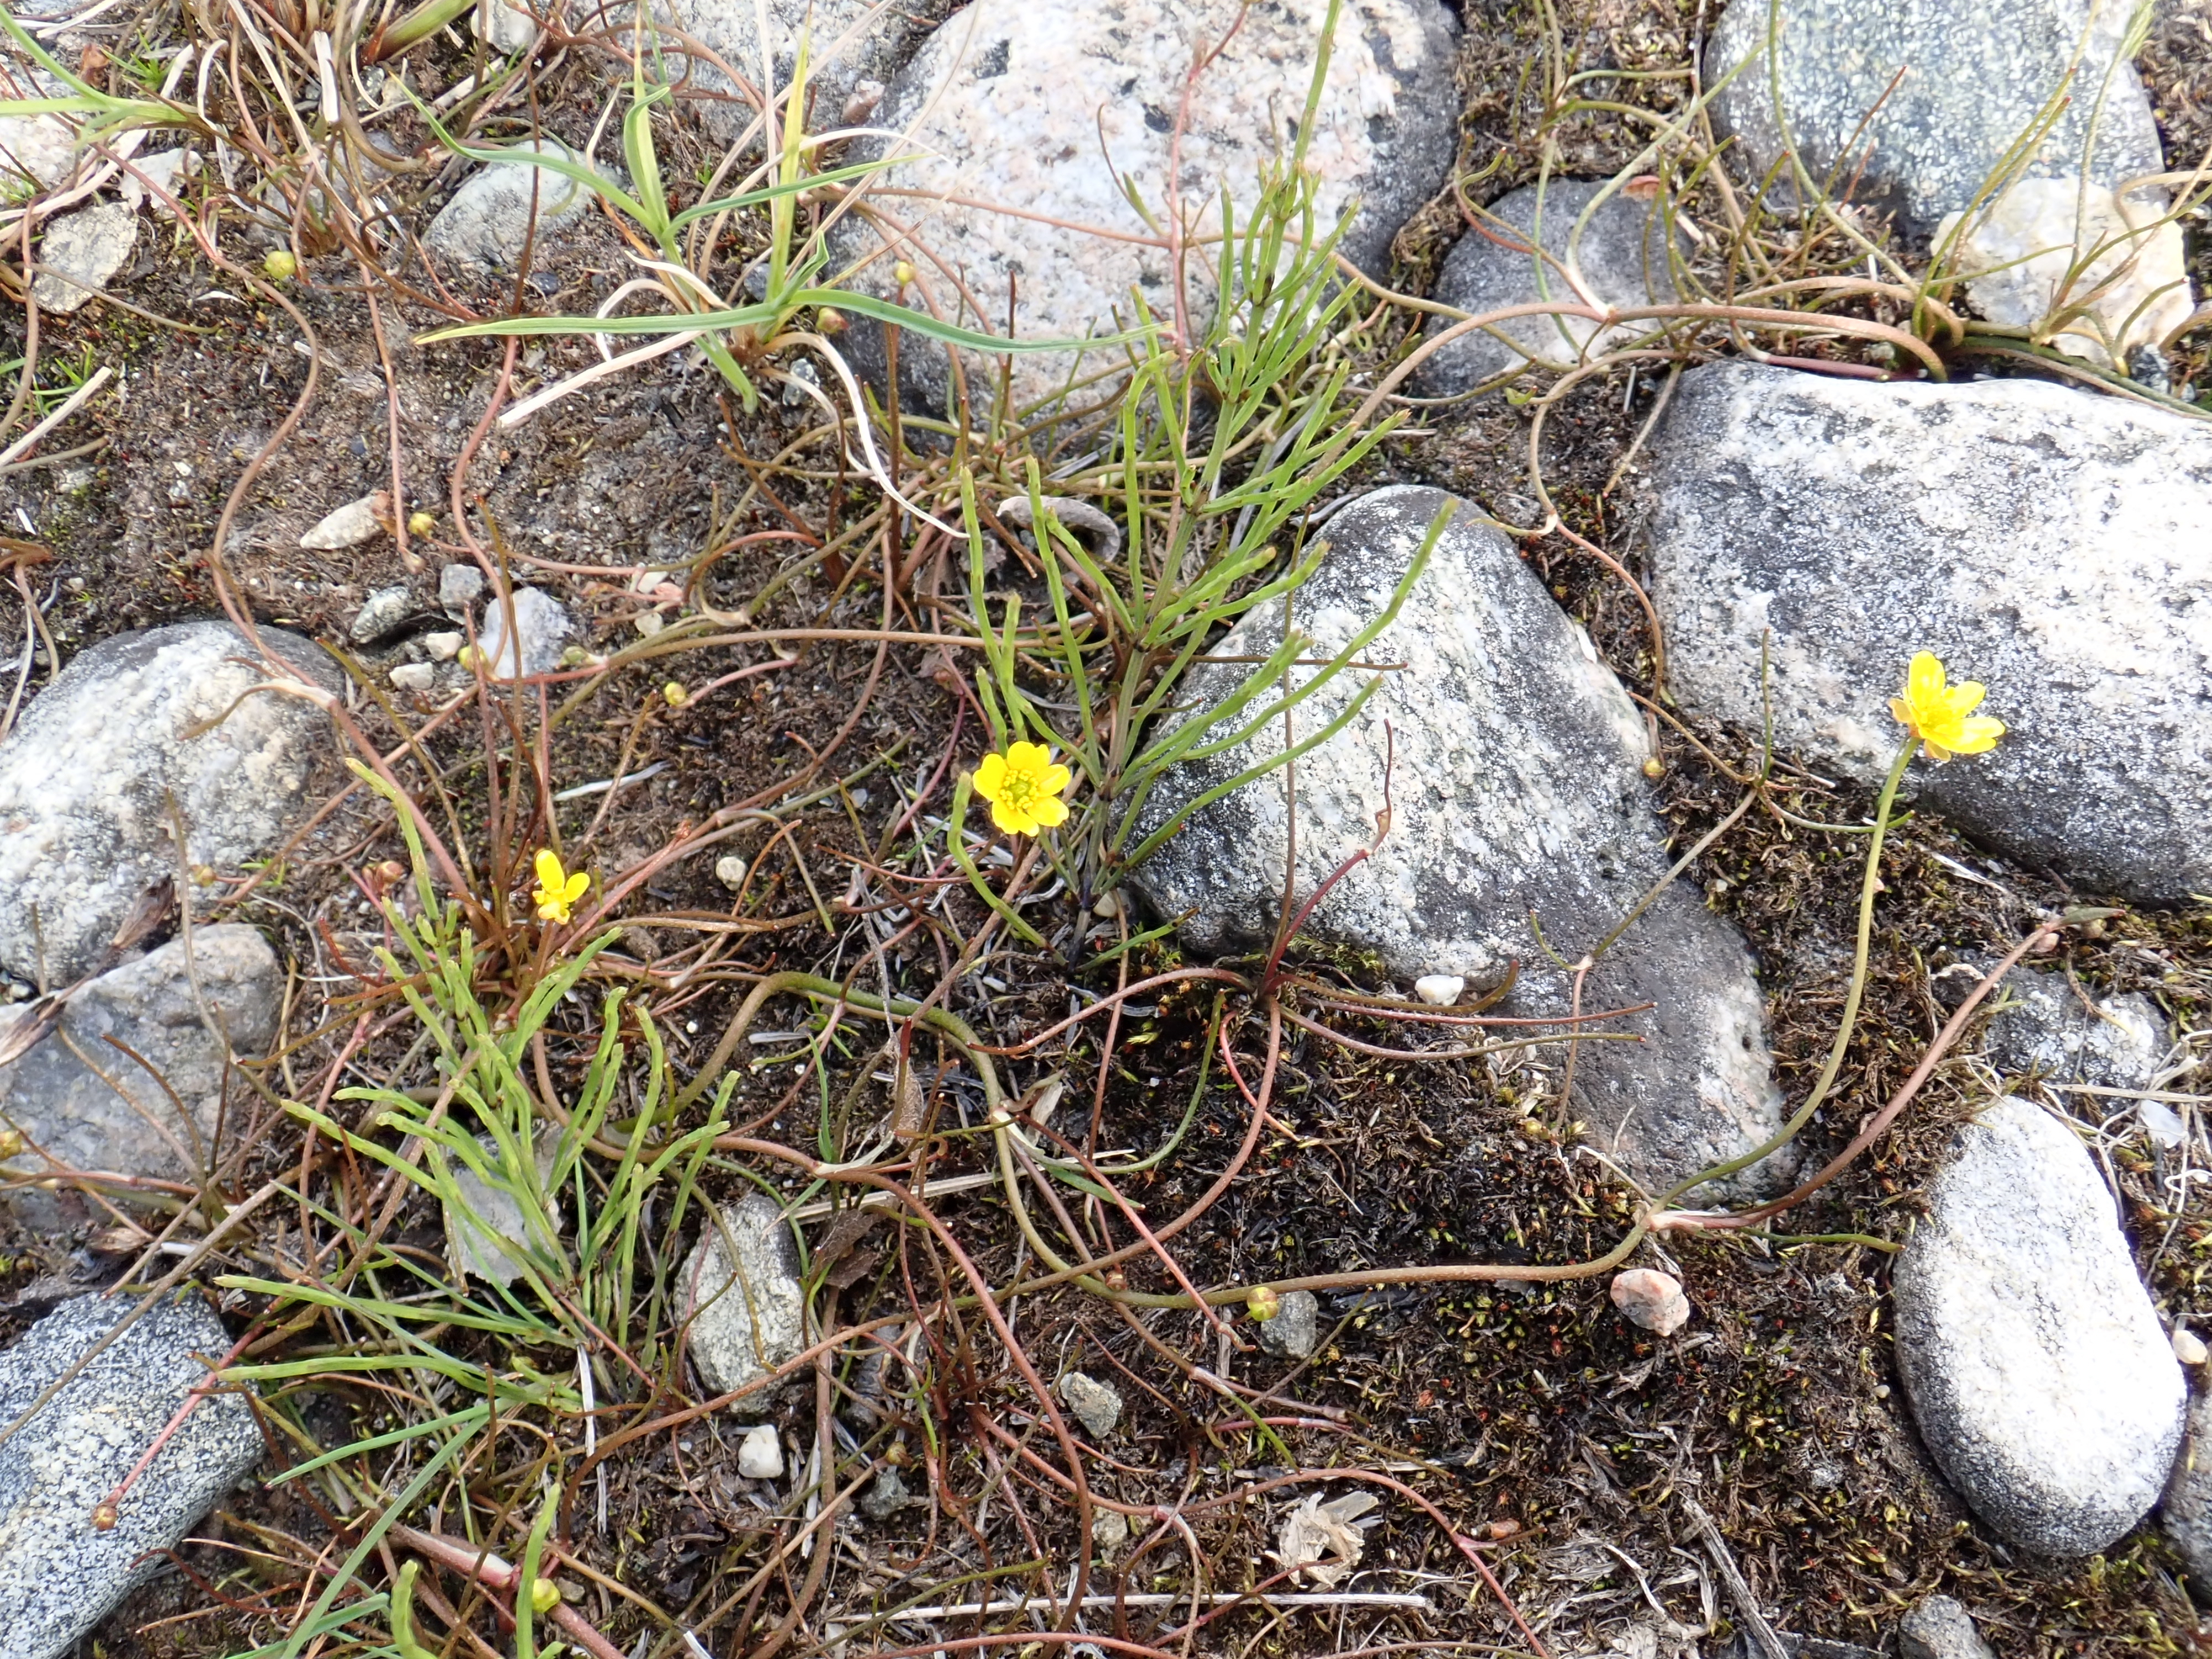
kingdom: Plantae
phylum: Tracheophyta
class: Magnoliopsida
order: Ranunculales
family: Ranunculaceae
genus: Ranunculus
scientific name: Ranunculus reptans
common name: Creeping spearwort
